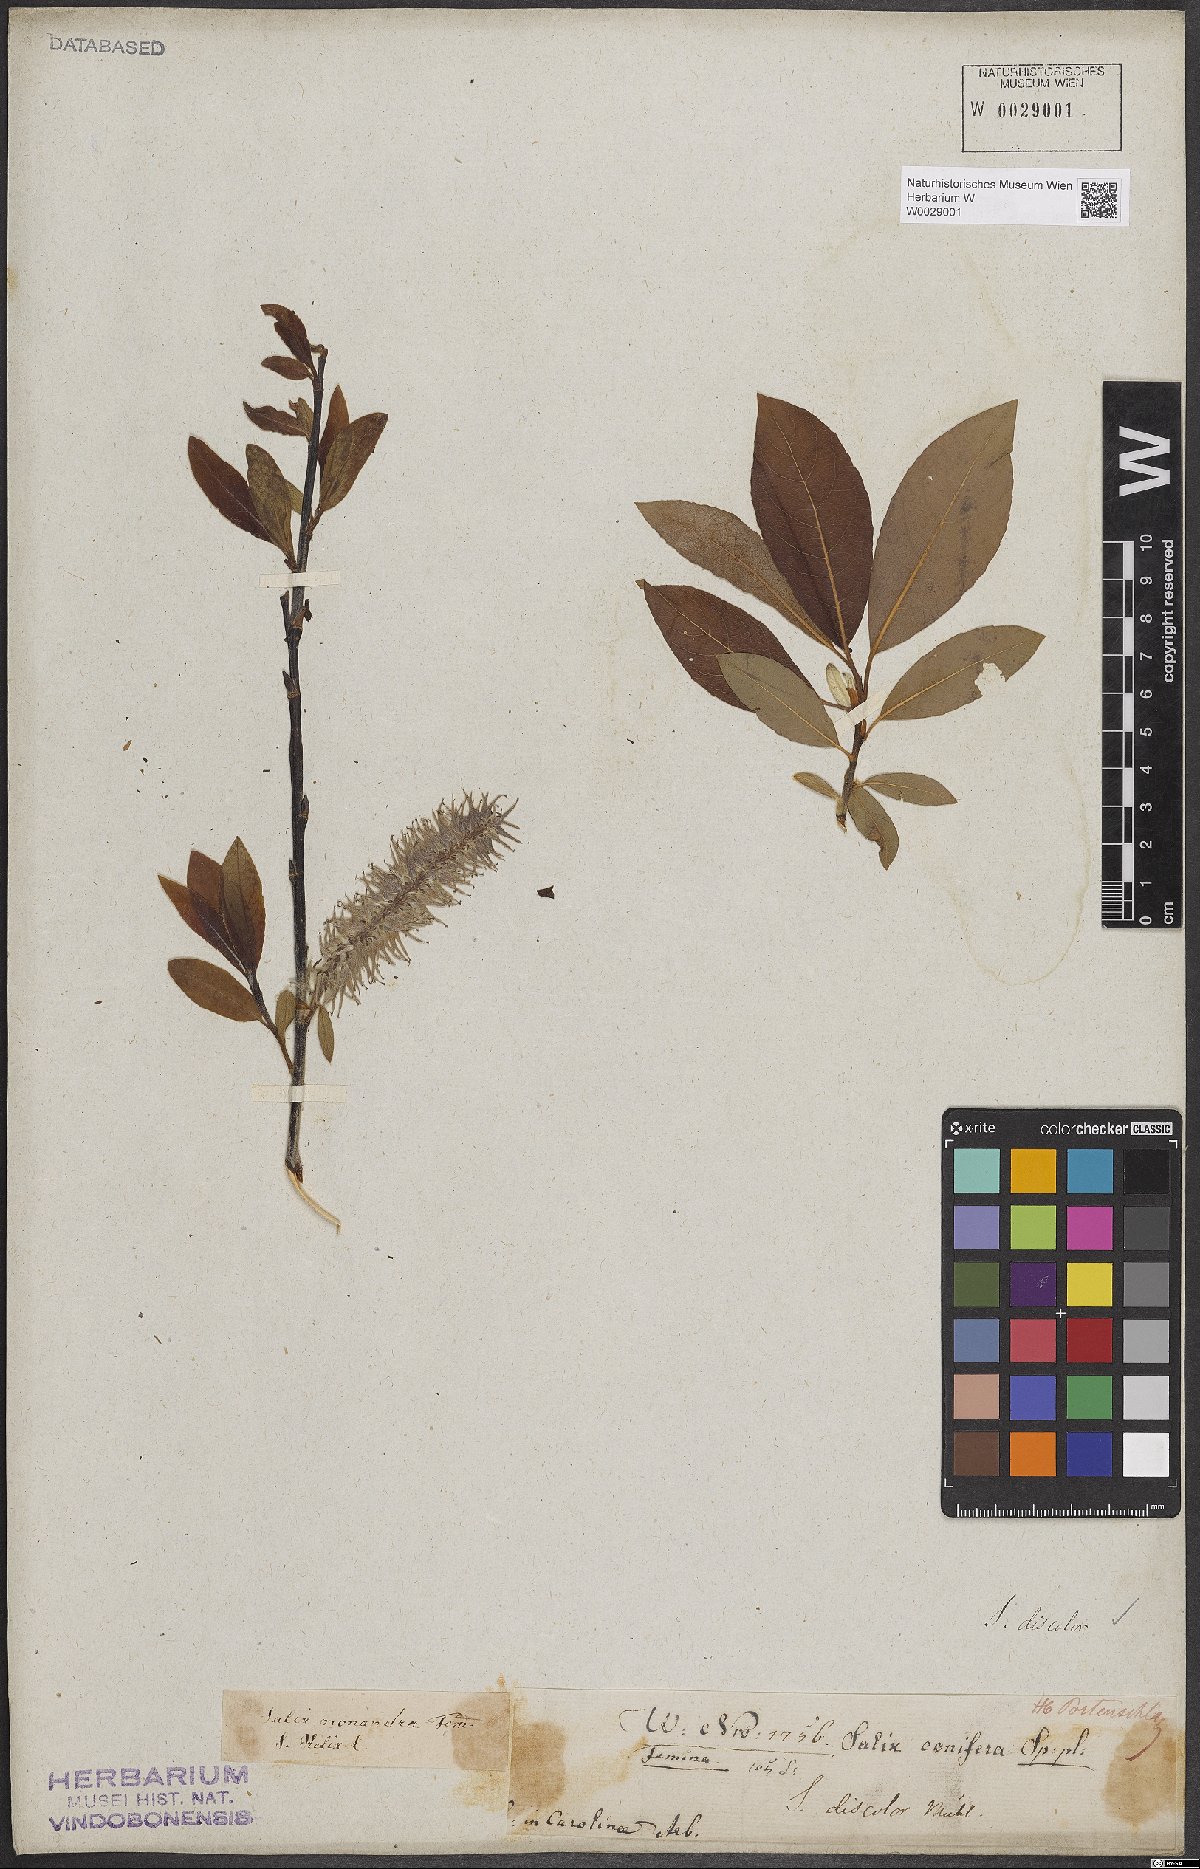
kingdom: Plantae
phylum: Tracheophyta
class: Magnoliopsida
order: Malpighiales
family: Salicaceae
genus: Salix
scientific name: Salix discolor
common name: Glaucous willow
